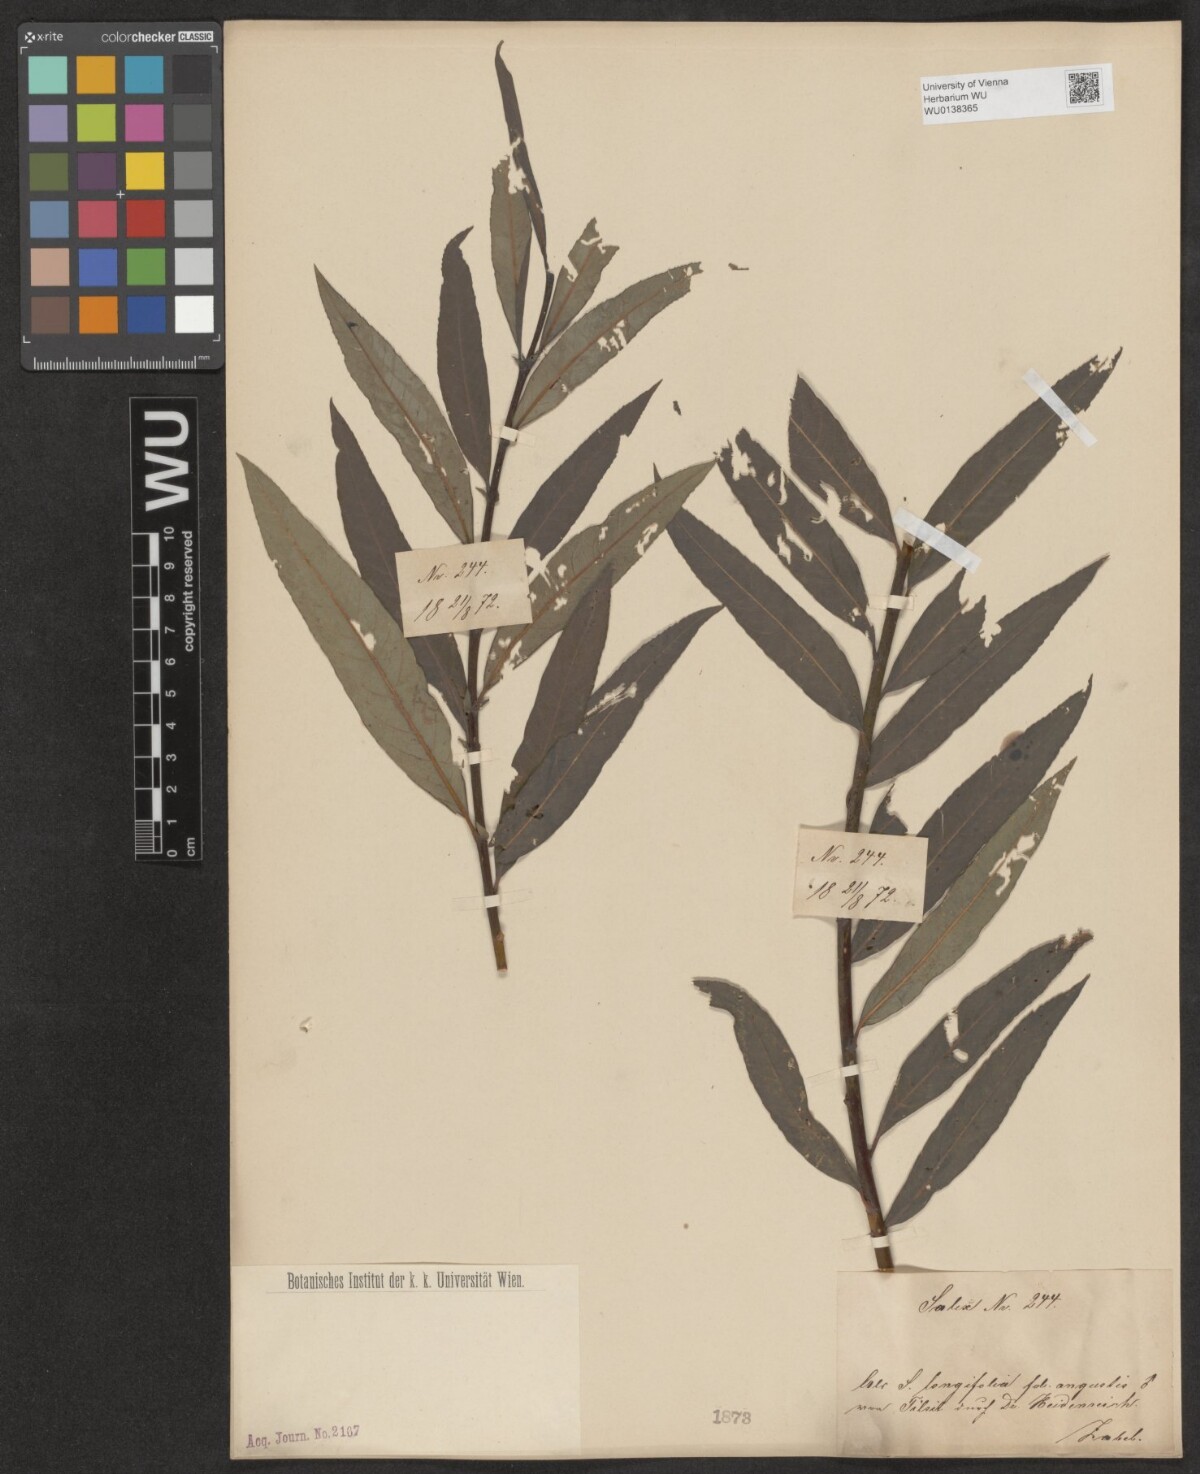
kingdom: Plantae
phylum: Tracheophyta
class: Magnoliopsida
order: Malpighiales
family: Salicaceae
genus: Salix
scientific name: Salix interior
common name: Sandbar willow
